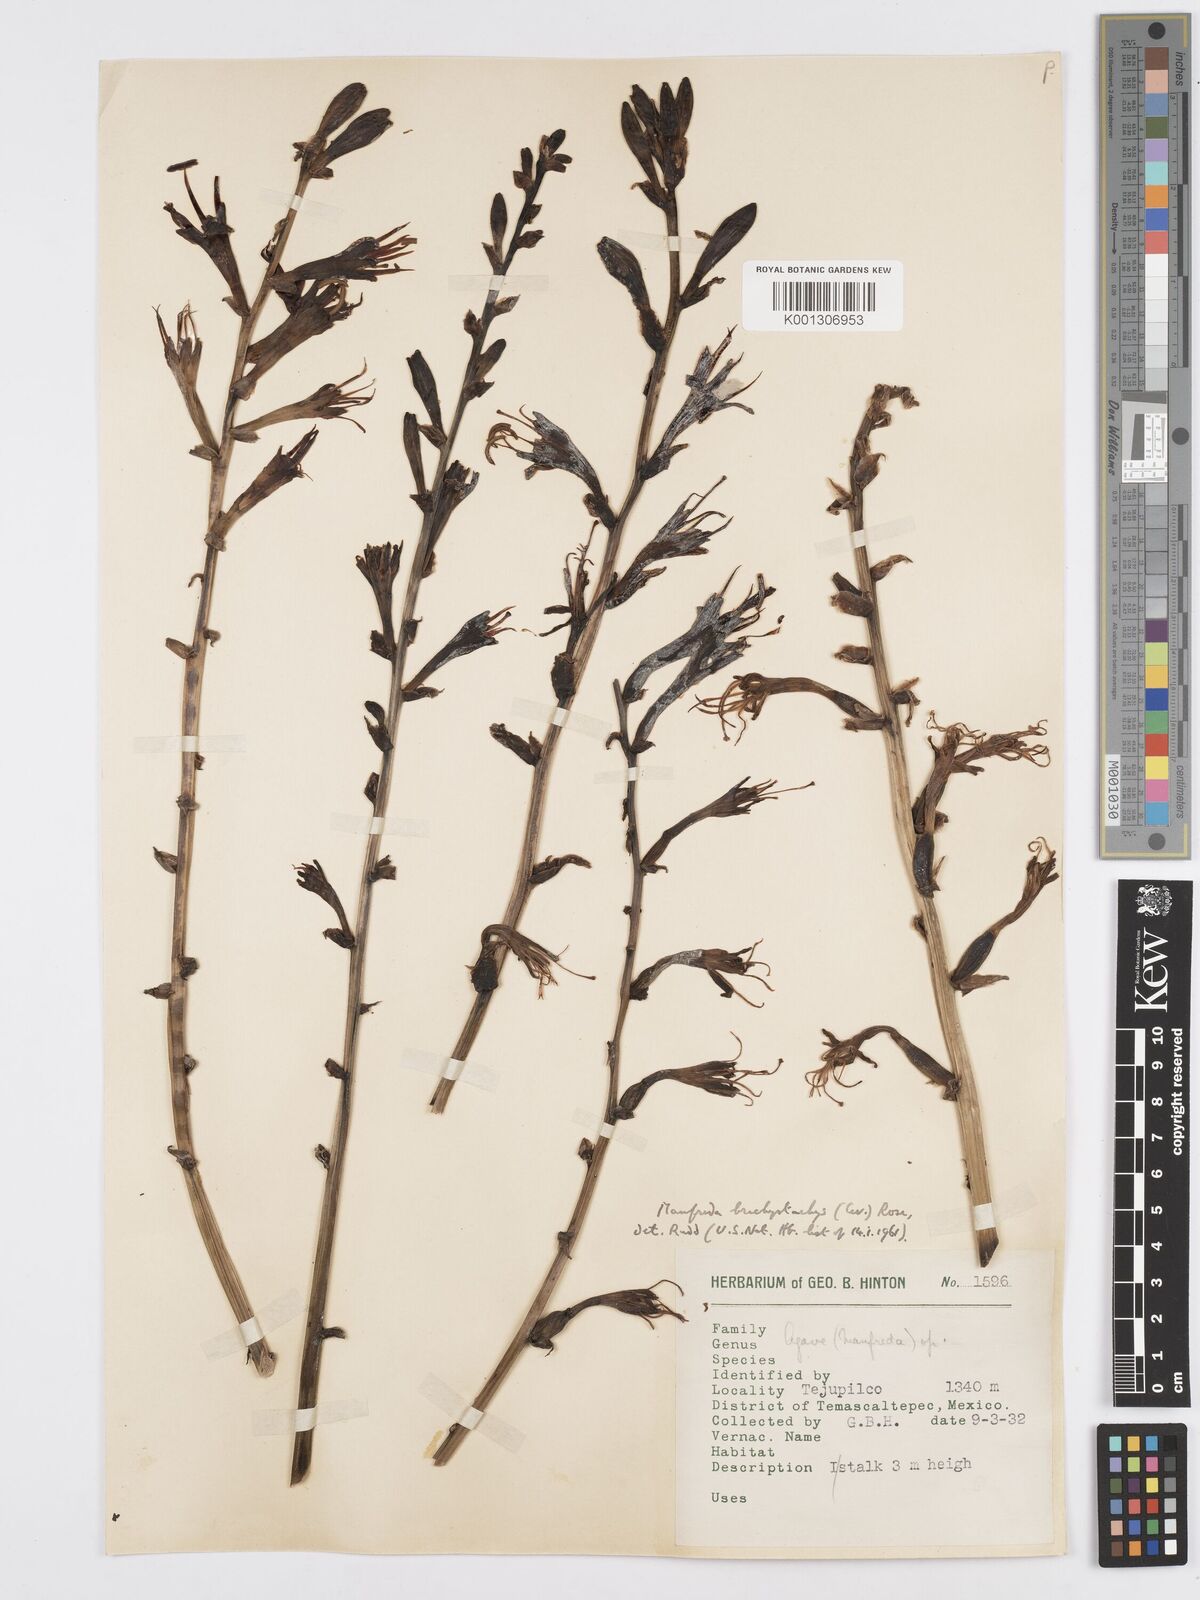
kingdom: Plantae
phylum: Tracheophyta
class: Liliopsida
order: Asparagales
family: Asparagaceae
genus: Agave
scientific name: Agave scabra
